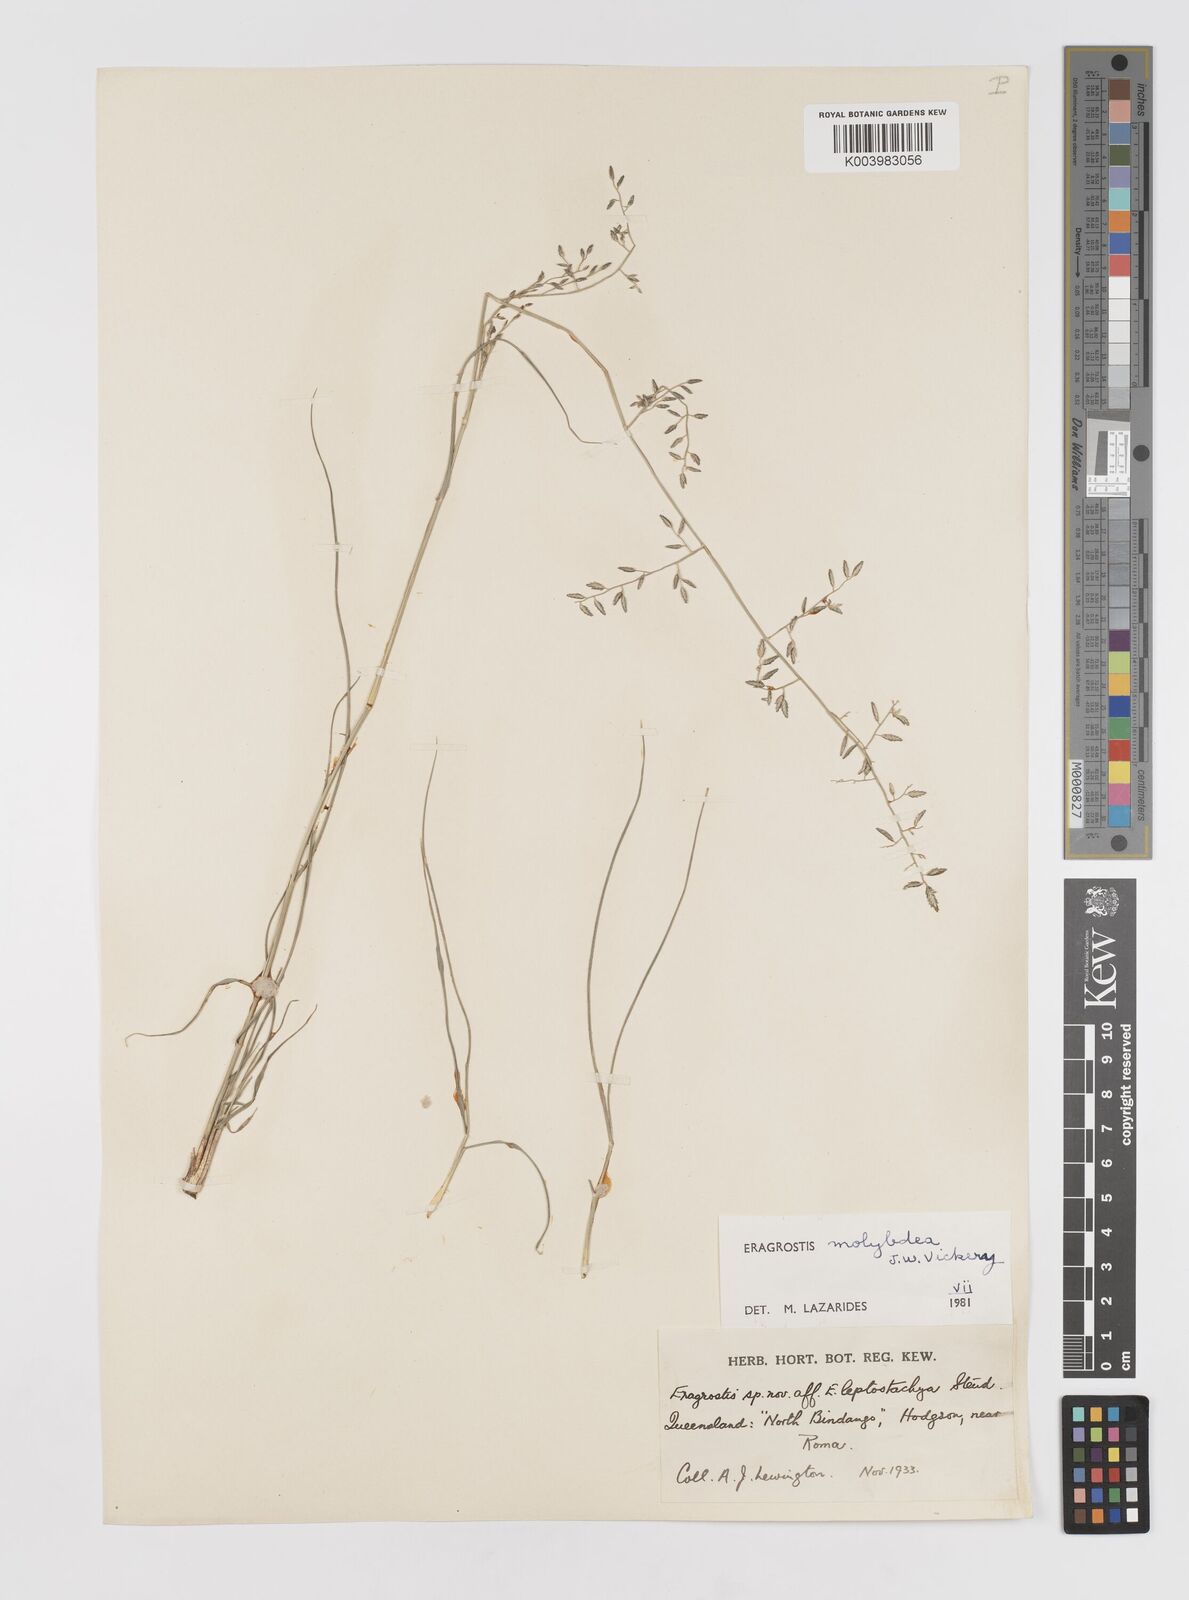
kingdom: Plantae
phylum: Tracheophyta
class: Liliopsida
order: Poales
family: Poaceae
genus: Eragrostis
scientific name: Eragrostis leptostachya
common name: Australian lovegrass
